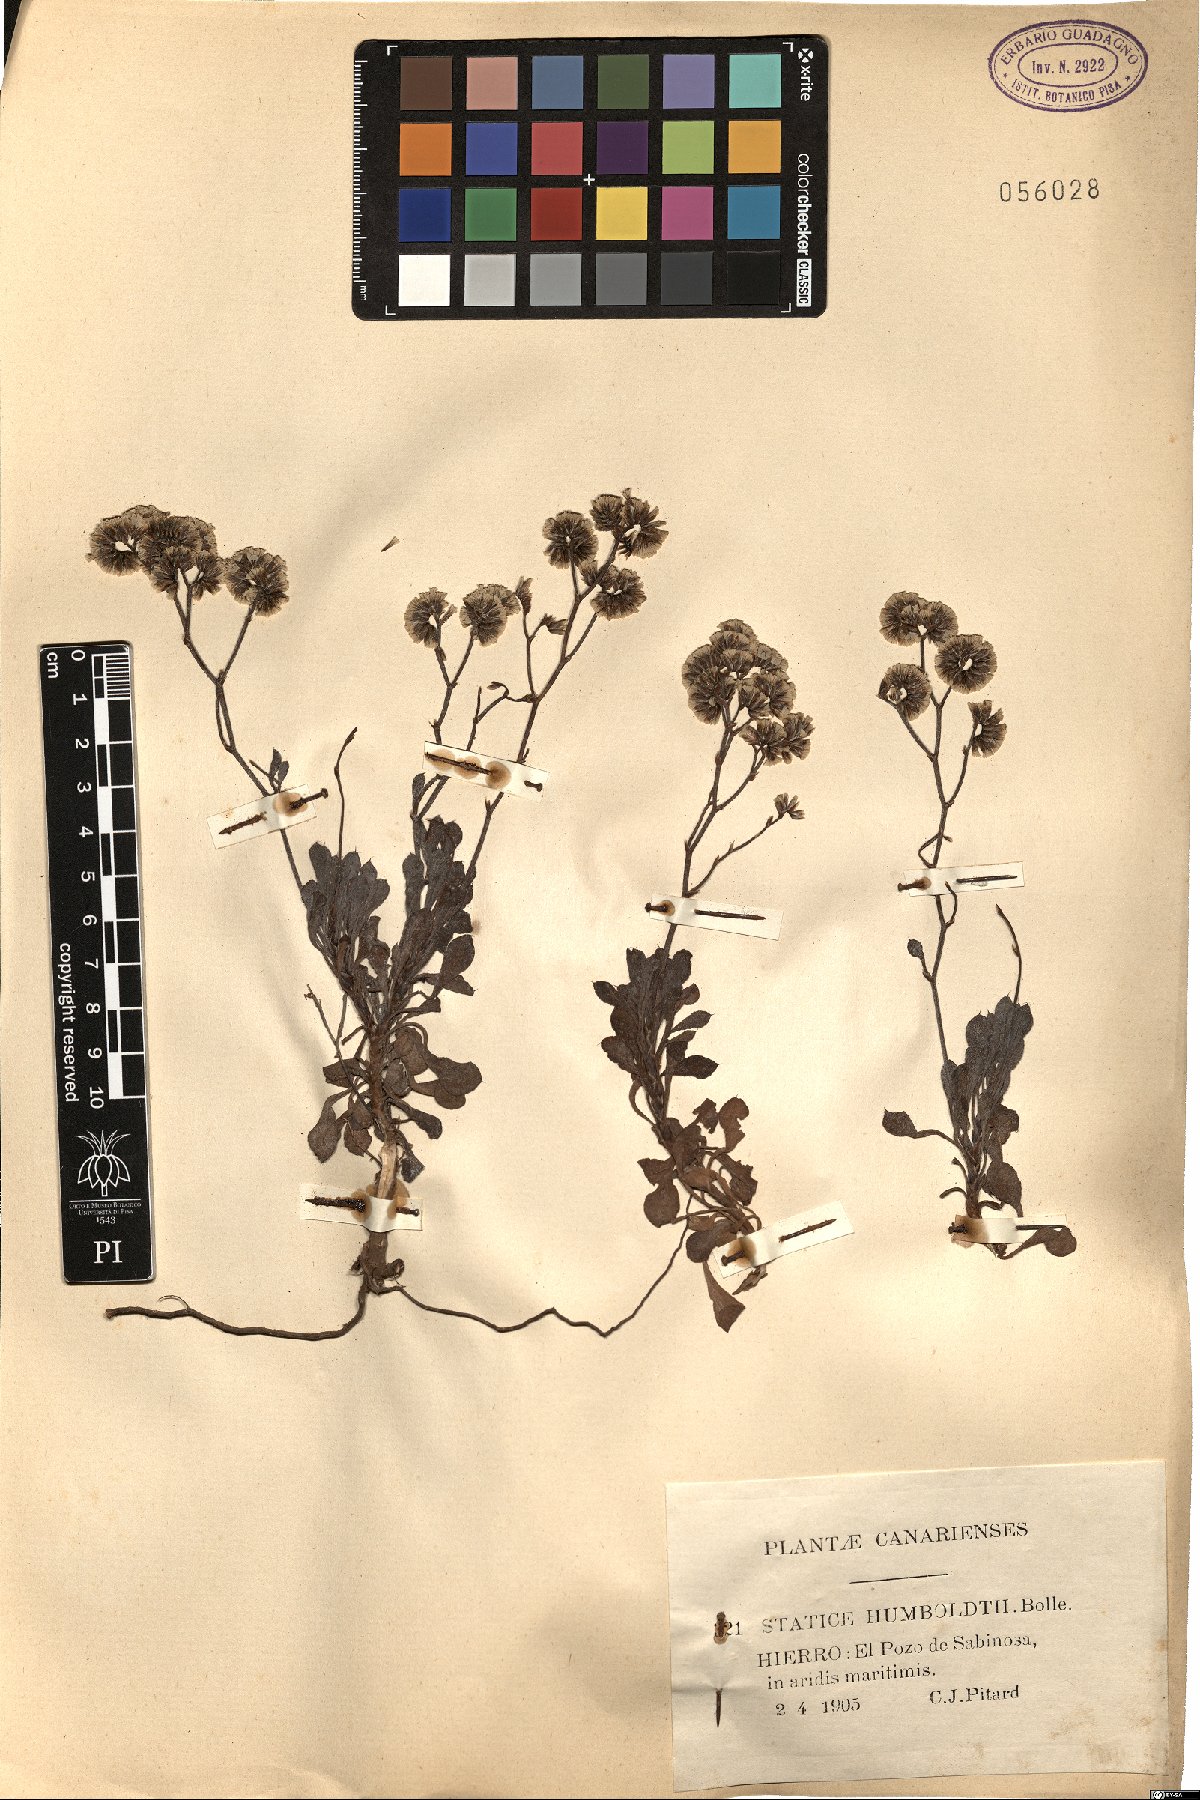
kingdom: Plantae
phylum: Tracheophyta
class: Magnoliopsida
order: Caryophyllales
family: Plumbaginaceae
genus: Limonium
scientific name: Limonium pectinatum
